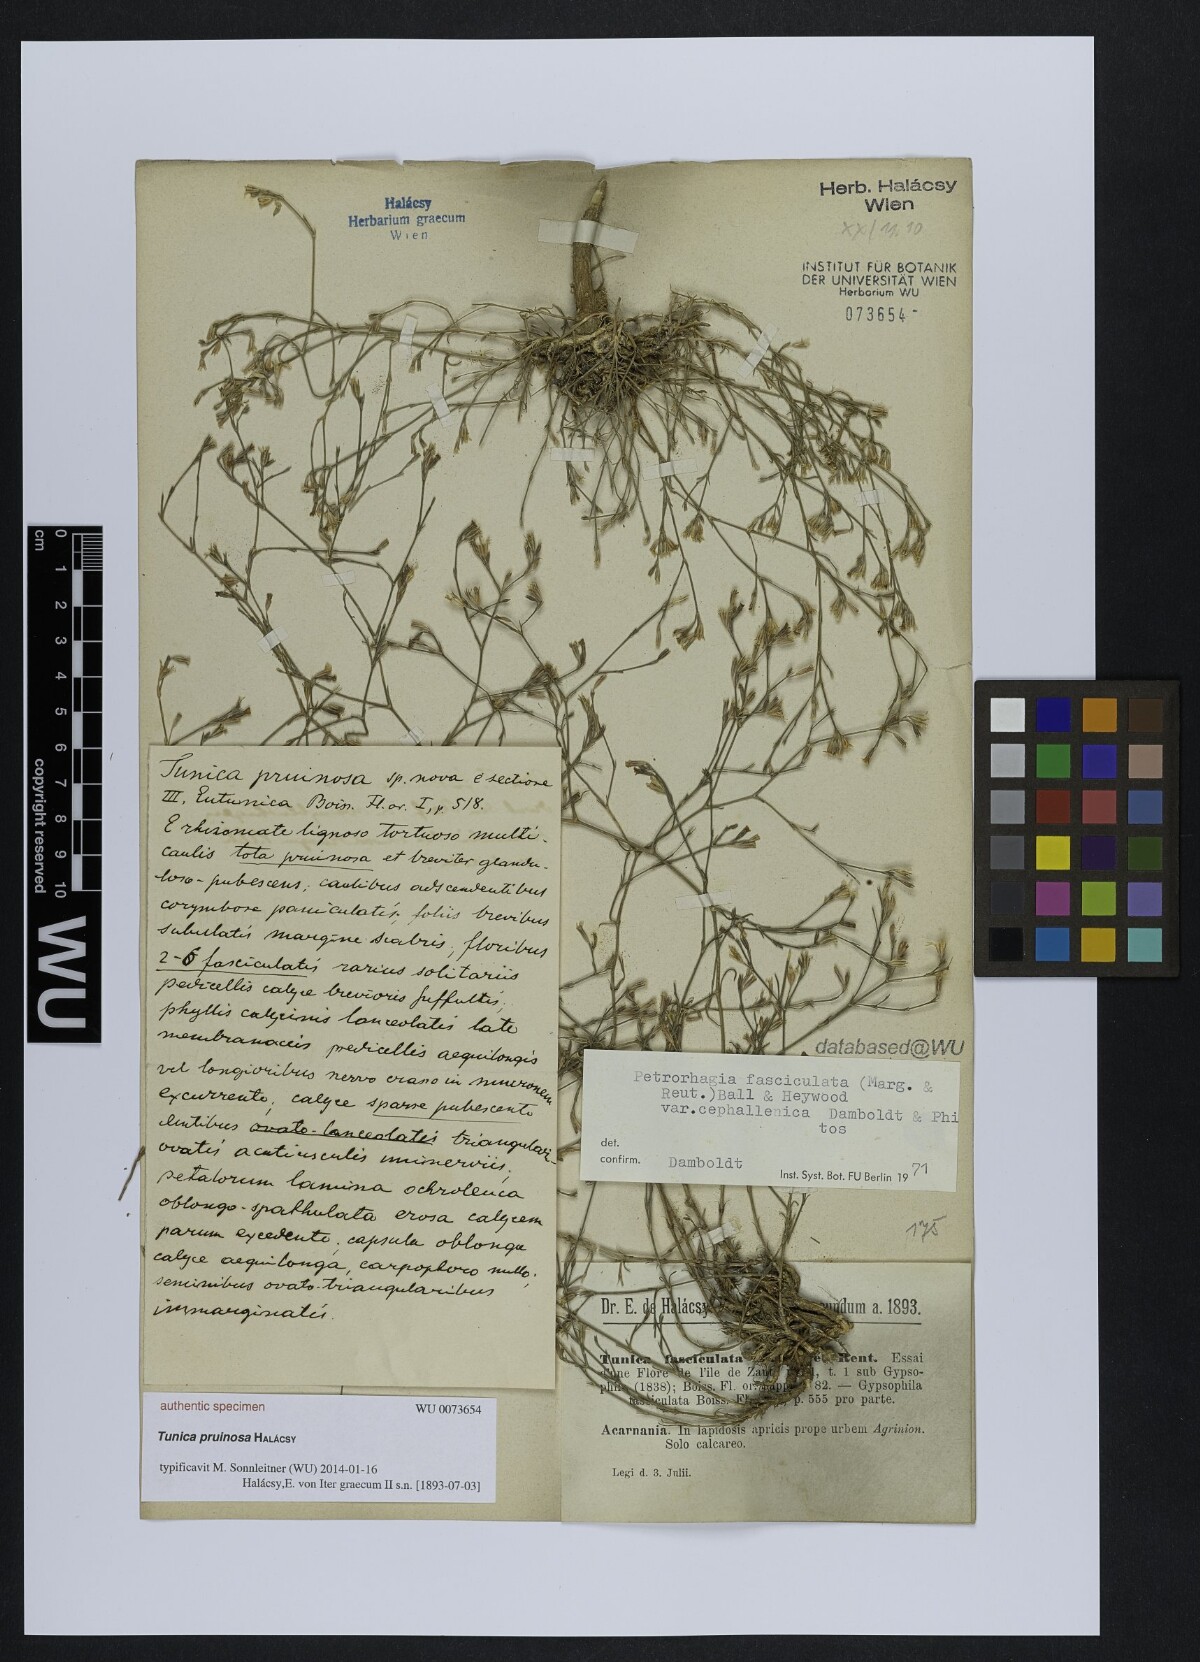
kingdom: Plantae
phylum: Tracheophyta
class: Magnoliopsida
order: Caryophyllales
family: Caryophyllaceae
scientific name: Caryophyllaceae
